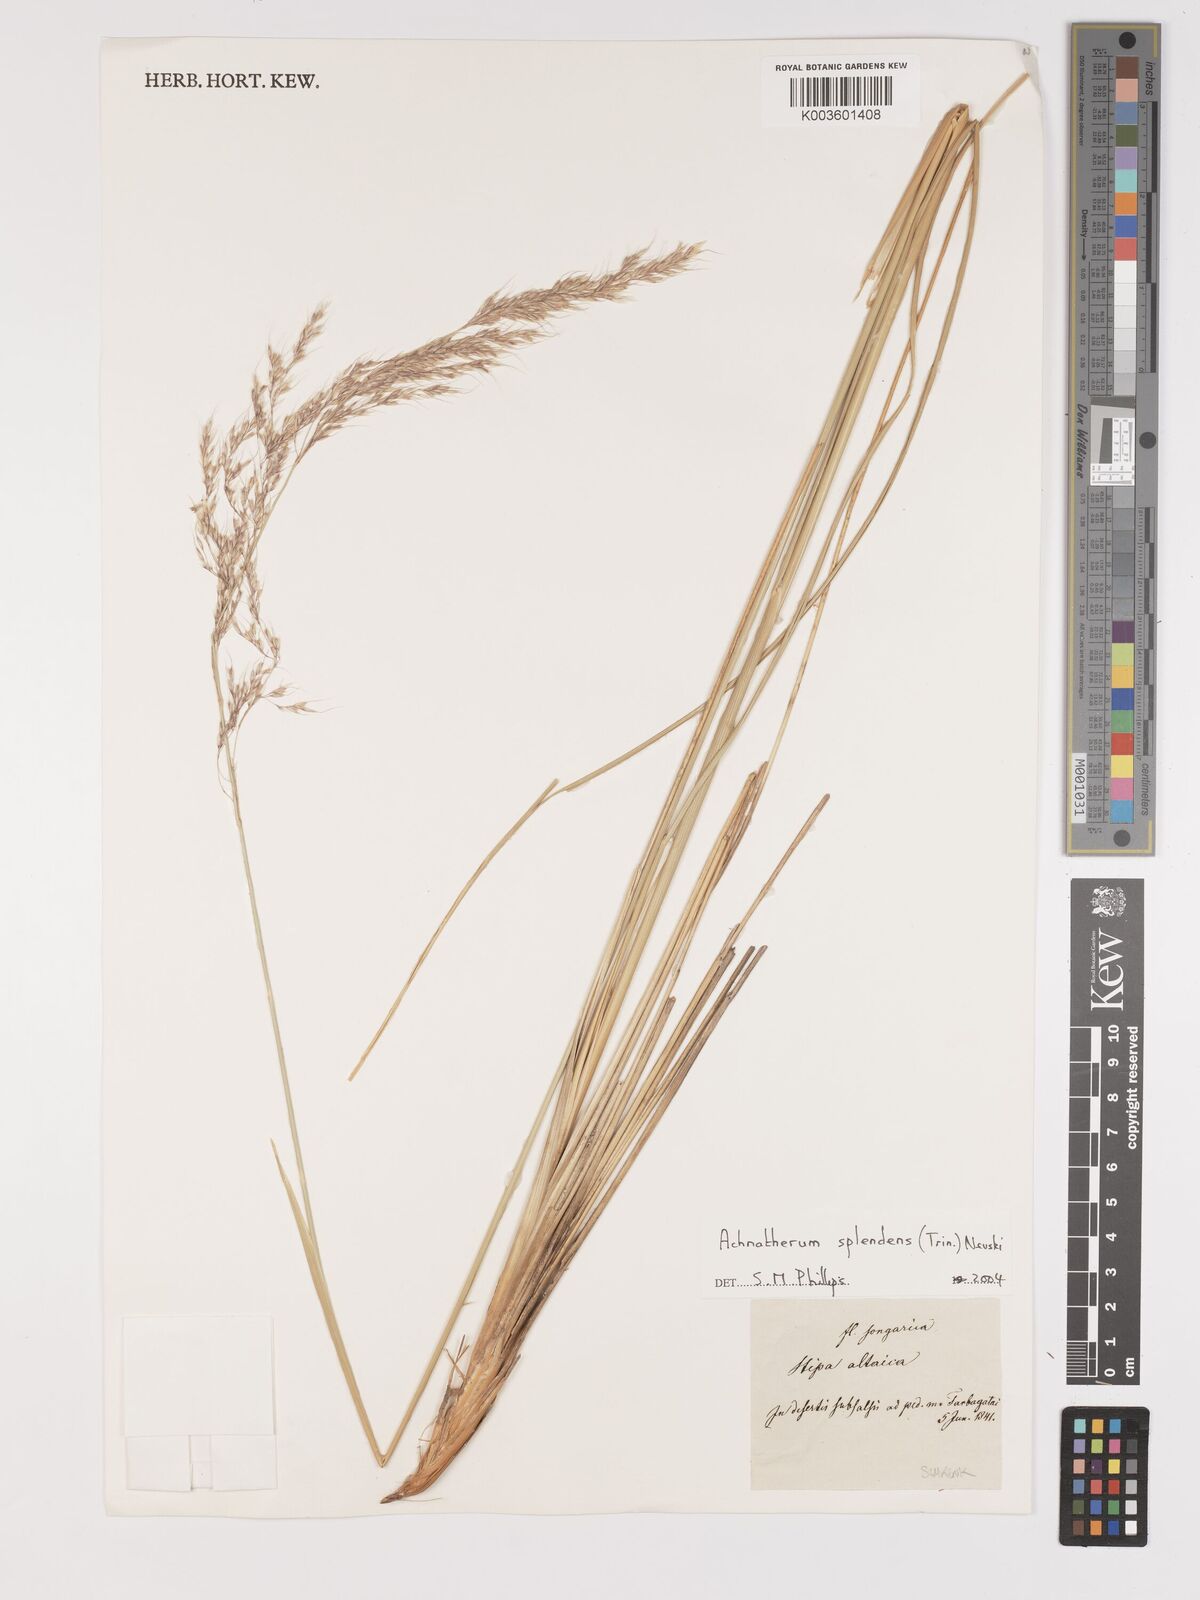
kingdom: Plantae
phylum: Tracheophyta
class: Liliopsida
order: Poales
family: Poaceae
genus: Neotrinia
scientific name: Neotrinia splendens
